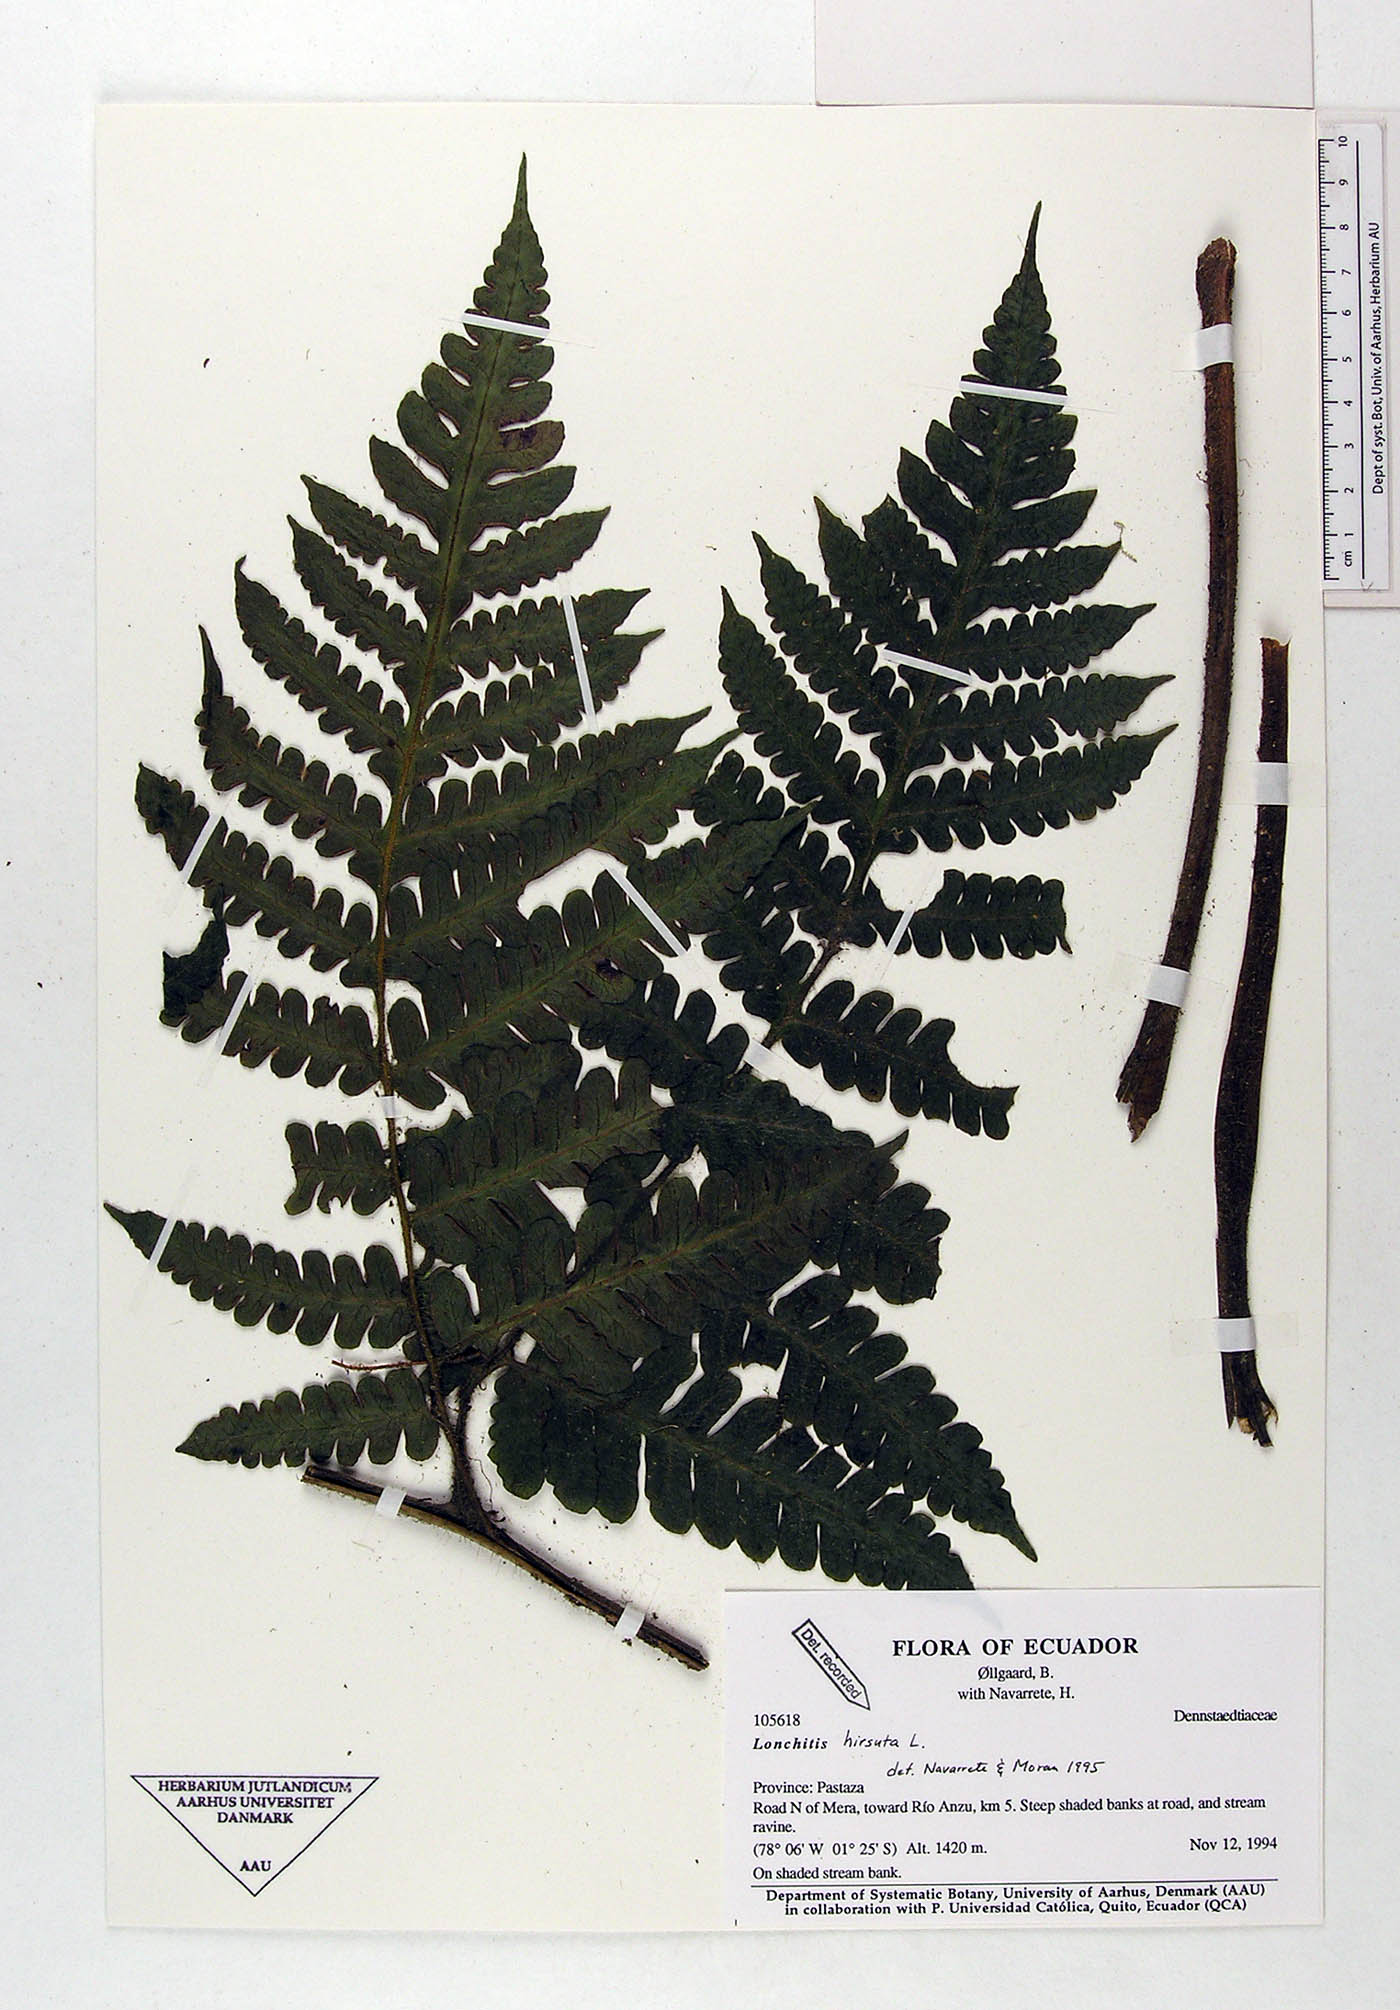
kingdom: Plantae
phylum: Tracheophyta
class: Polypodiopsida
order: Polypodiales
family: Lonchitidaceae
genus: Lonchitis
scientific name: Lonchitis hirsuta
